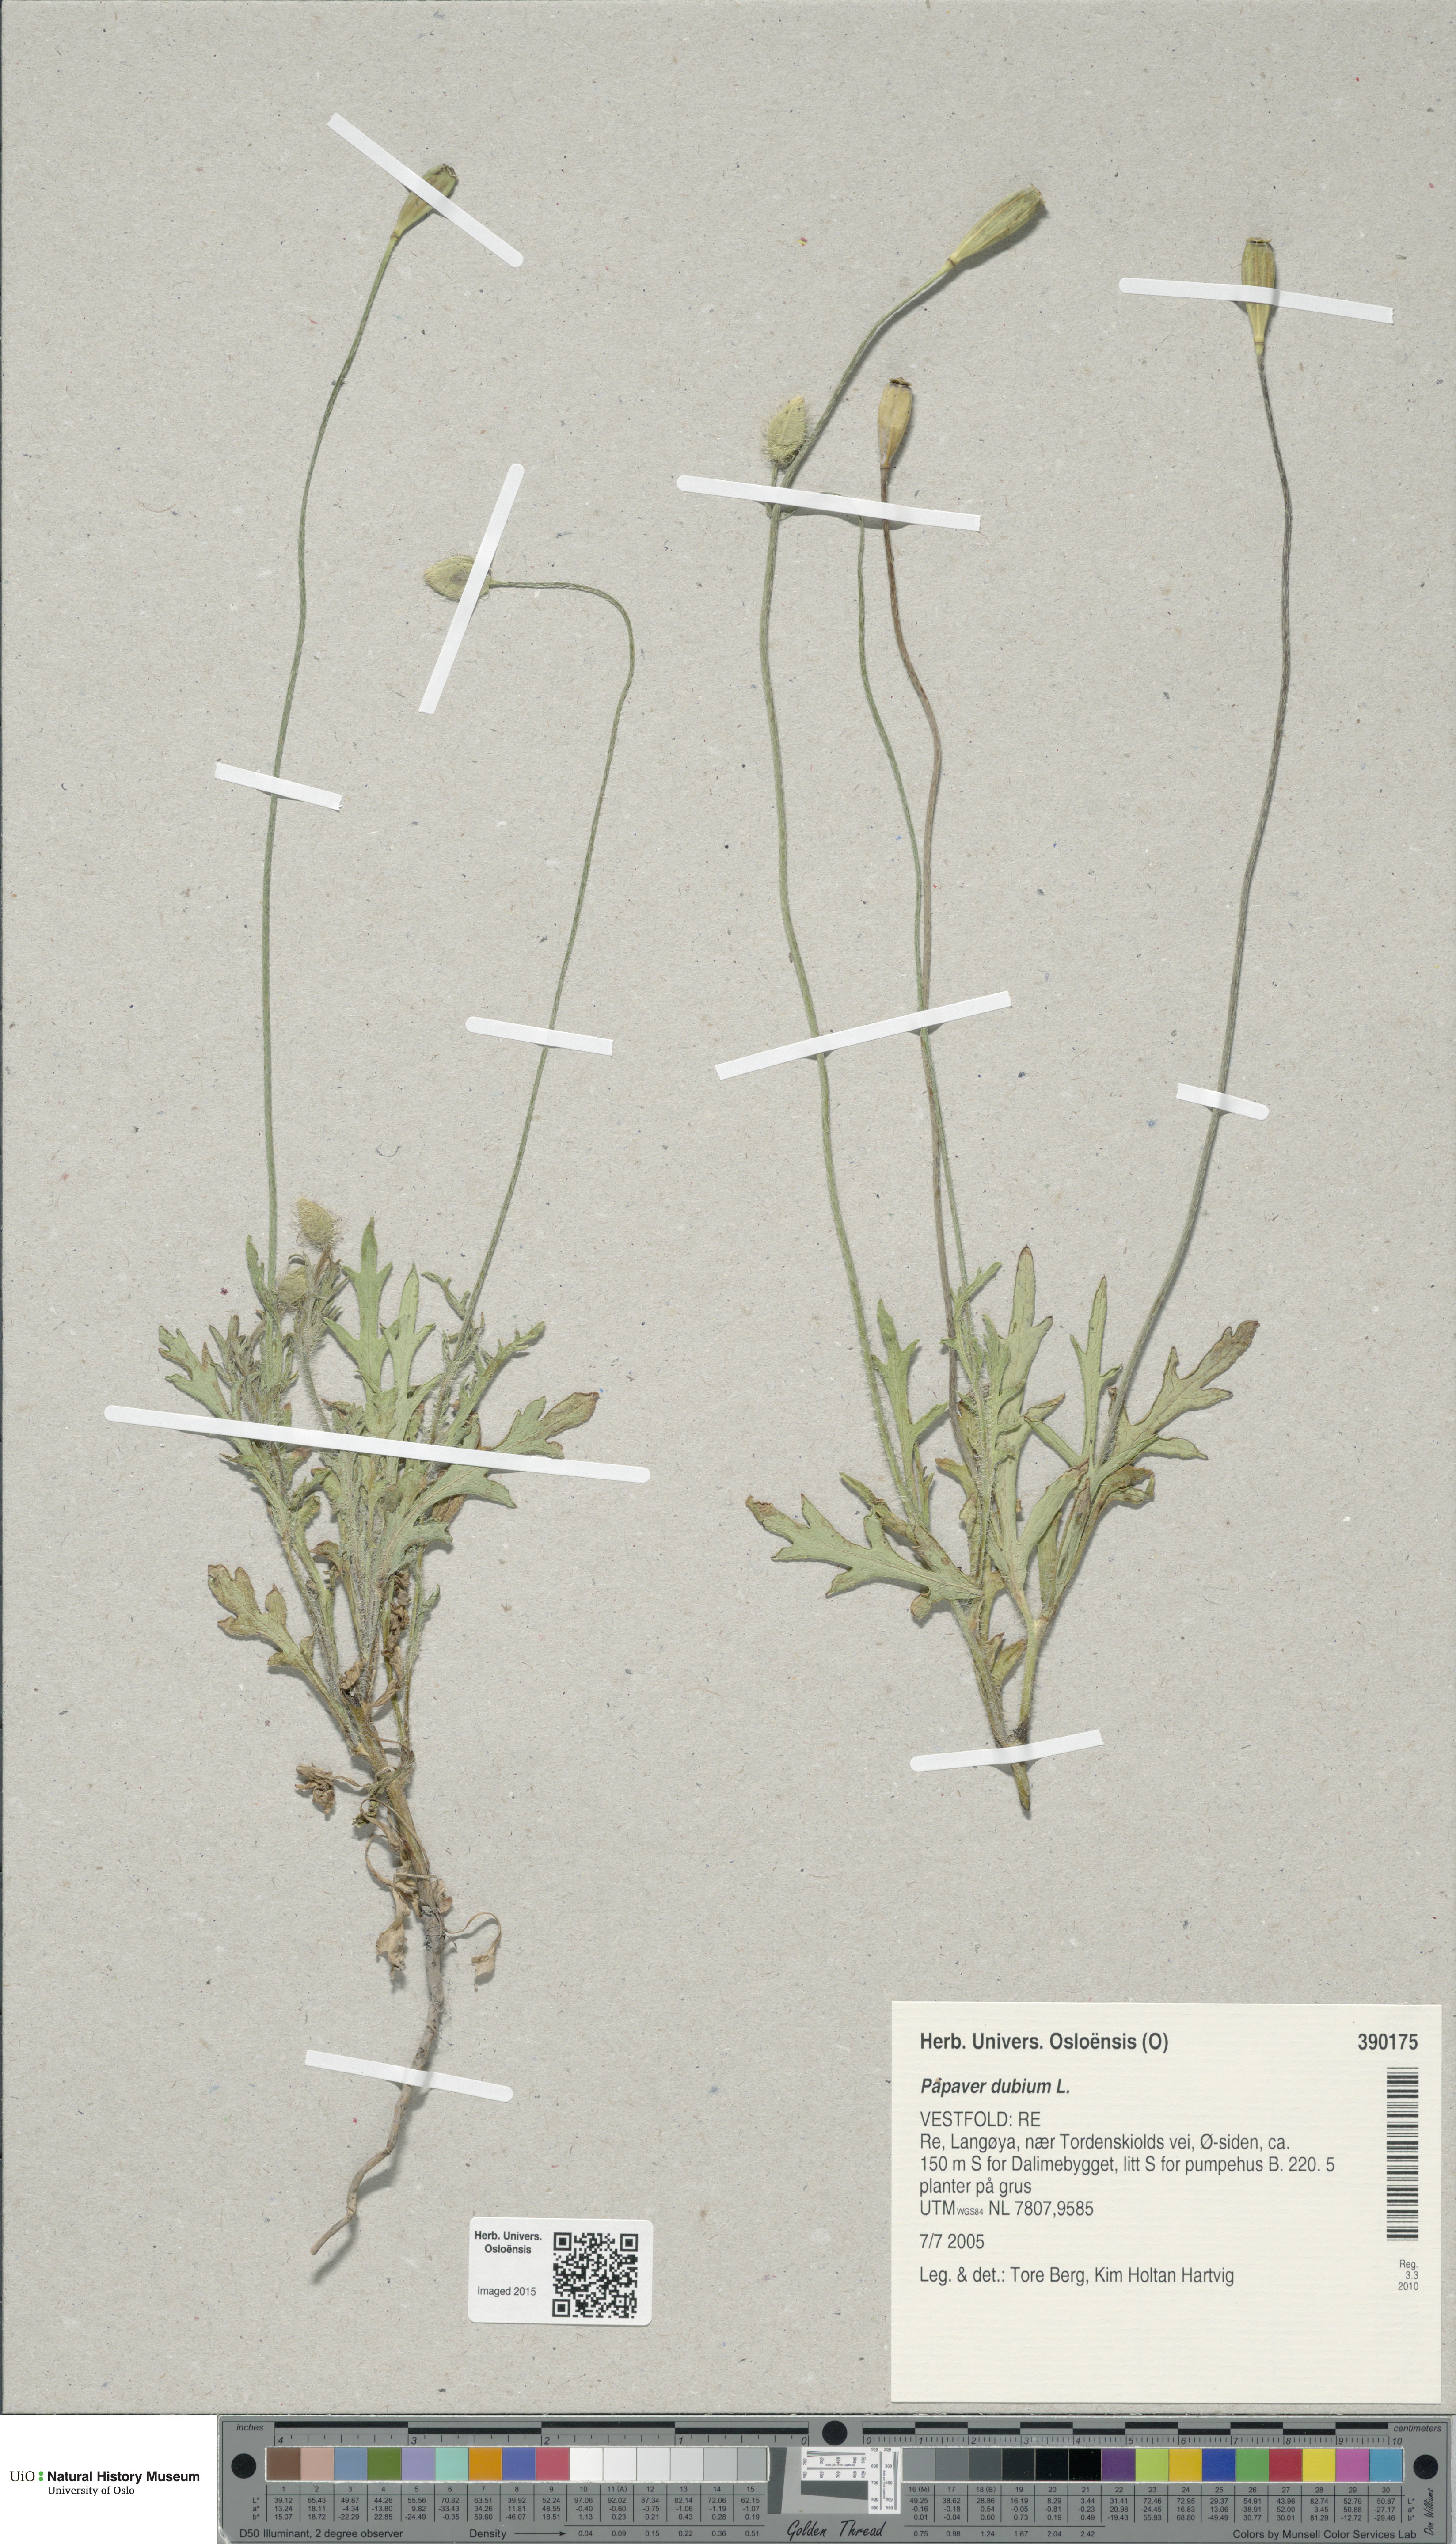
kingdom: Plantae
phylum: Tracheophyta
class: Magnoliopsida
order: Ranunculales
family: Papaveraceae
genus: Papaver
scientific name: Papaver dubium
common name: Long-headed poppy
